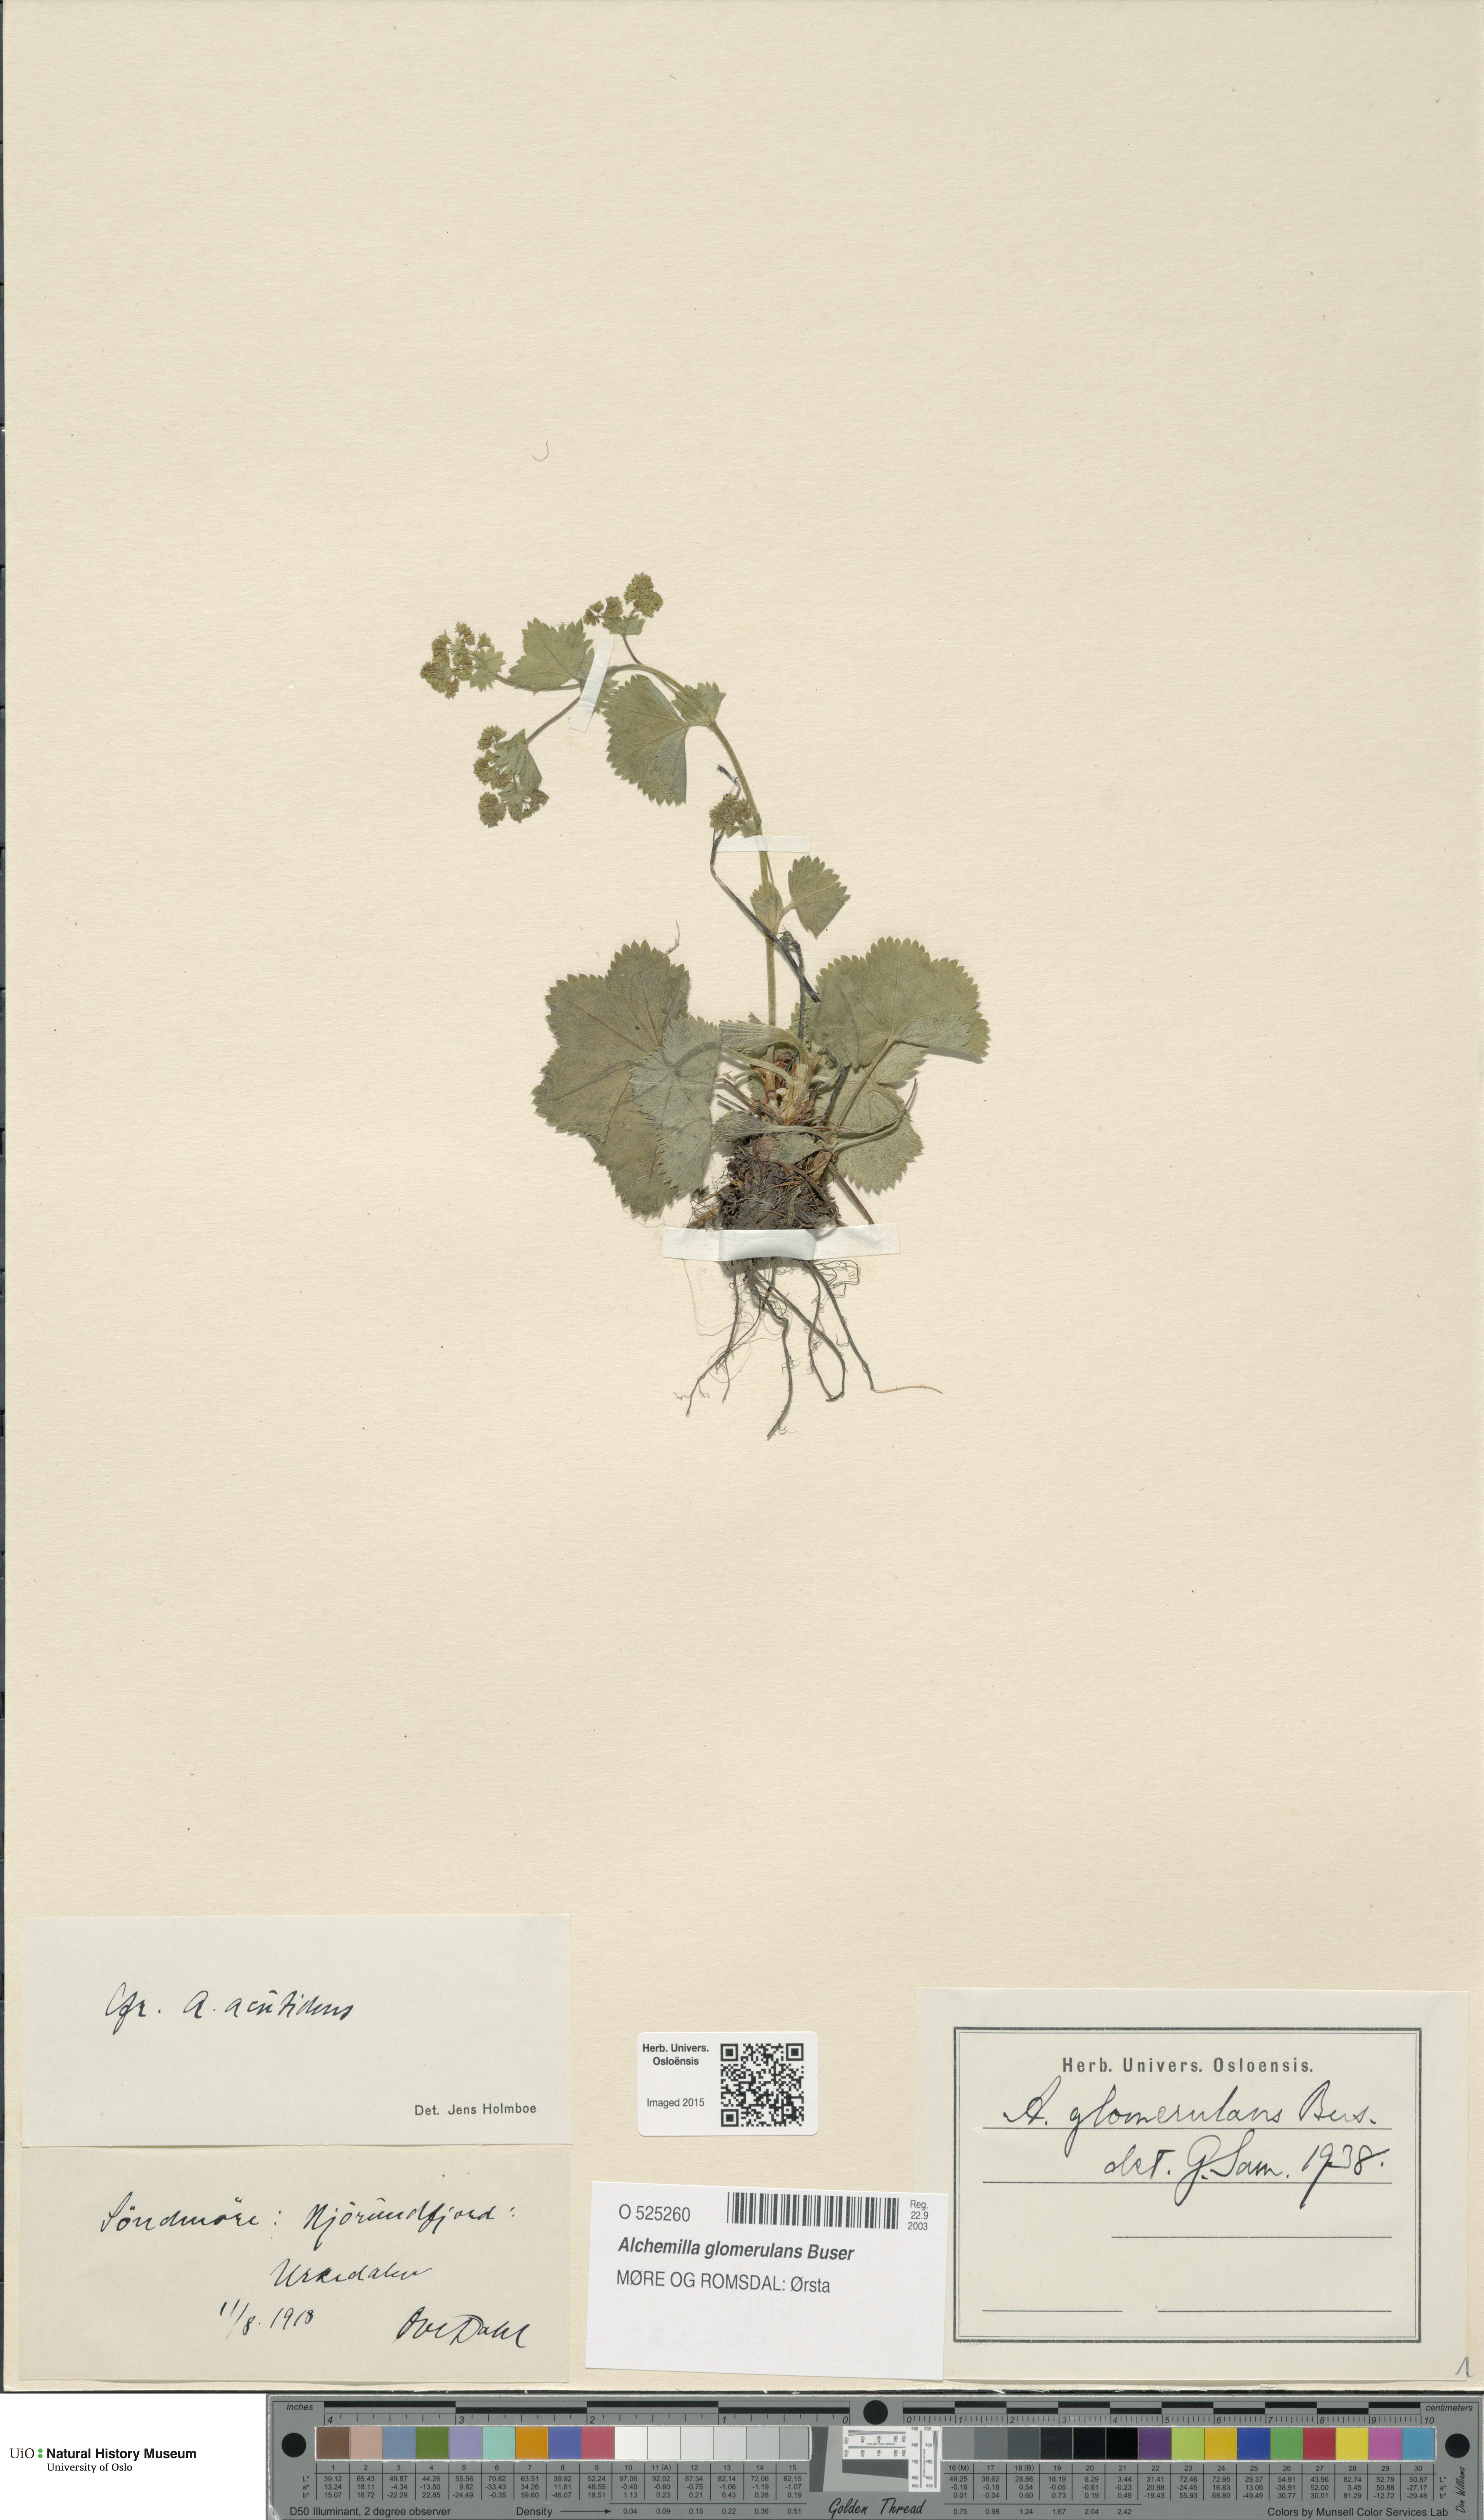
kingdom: Plantae
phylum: Tracheophyta
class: Magnoliopsida
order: Rosales
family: Rosaceae
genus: Alchemilla
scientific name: Alchemilla glomerulans
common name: Clustered lady's mantle
